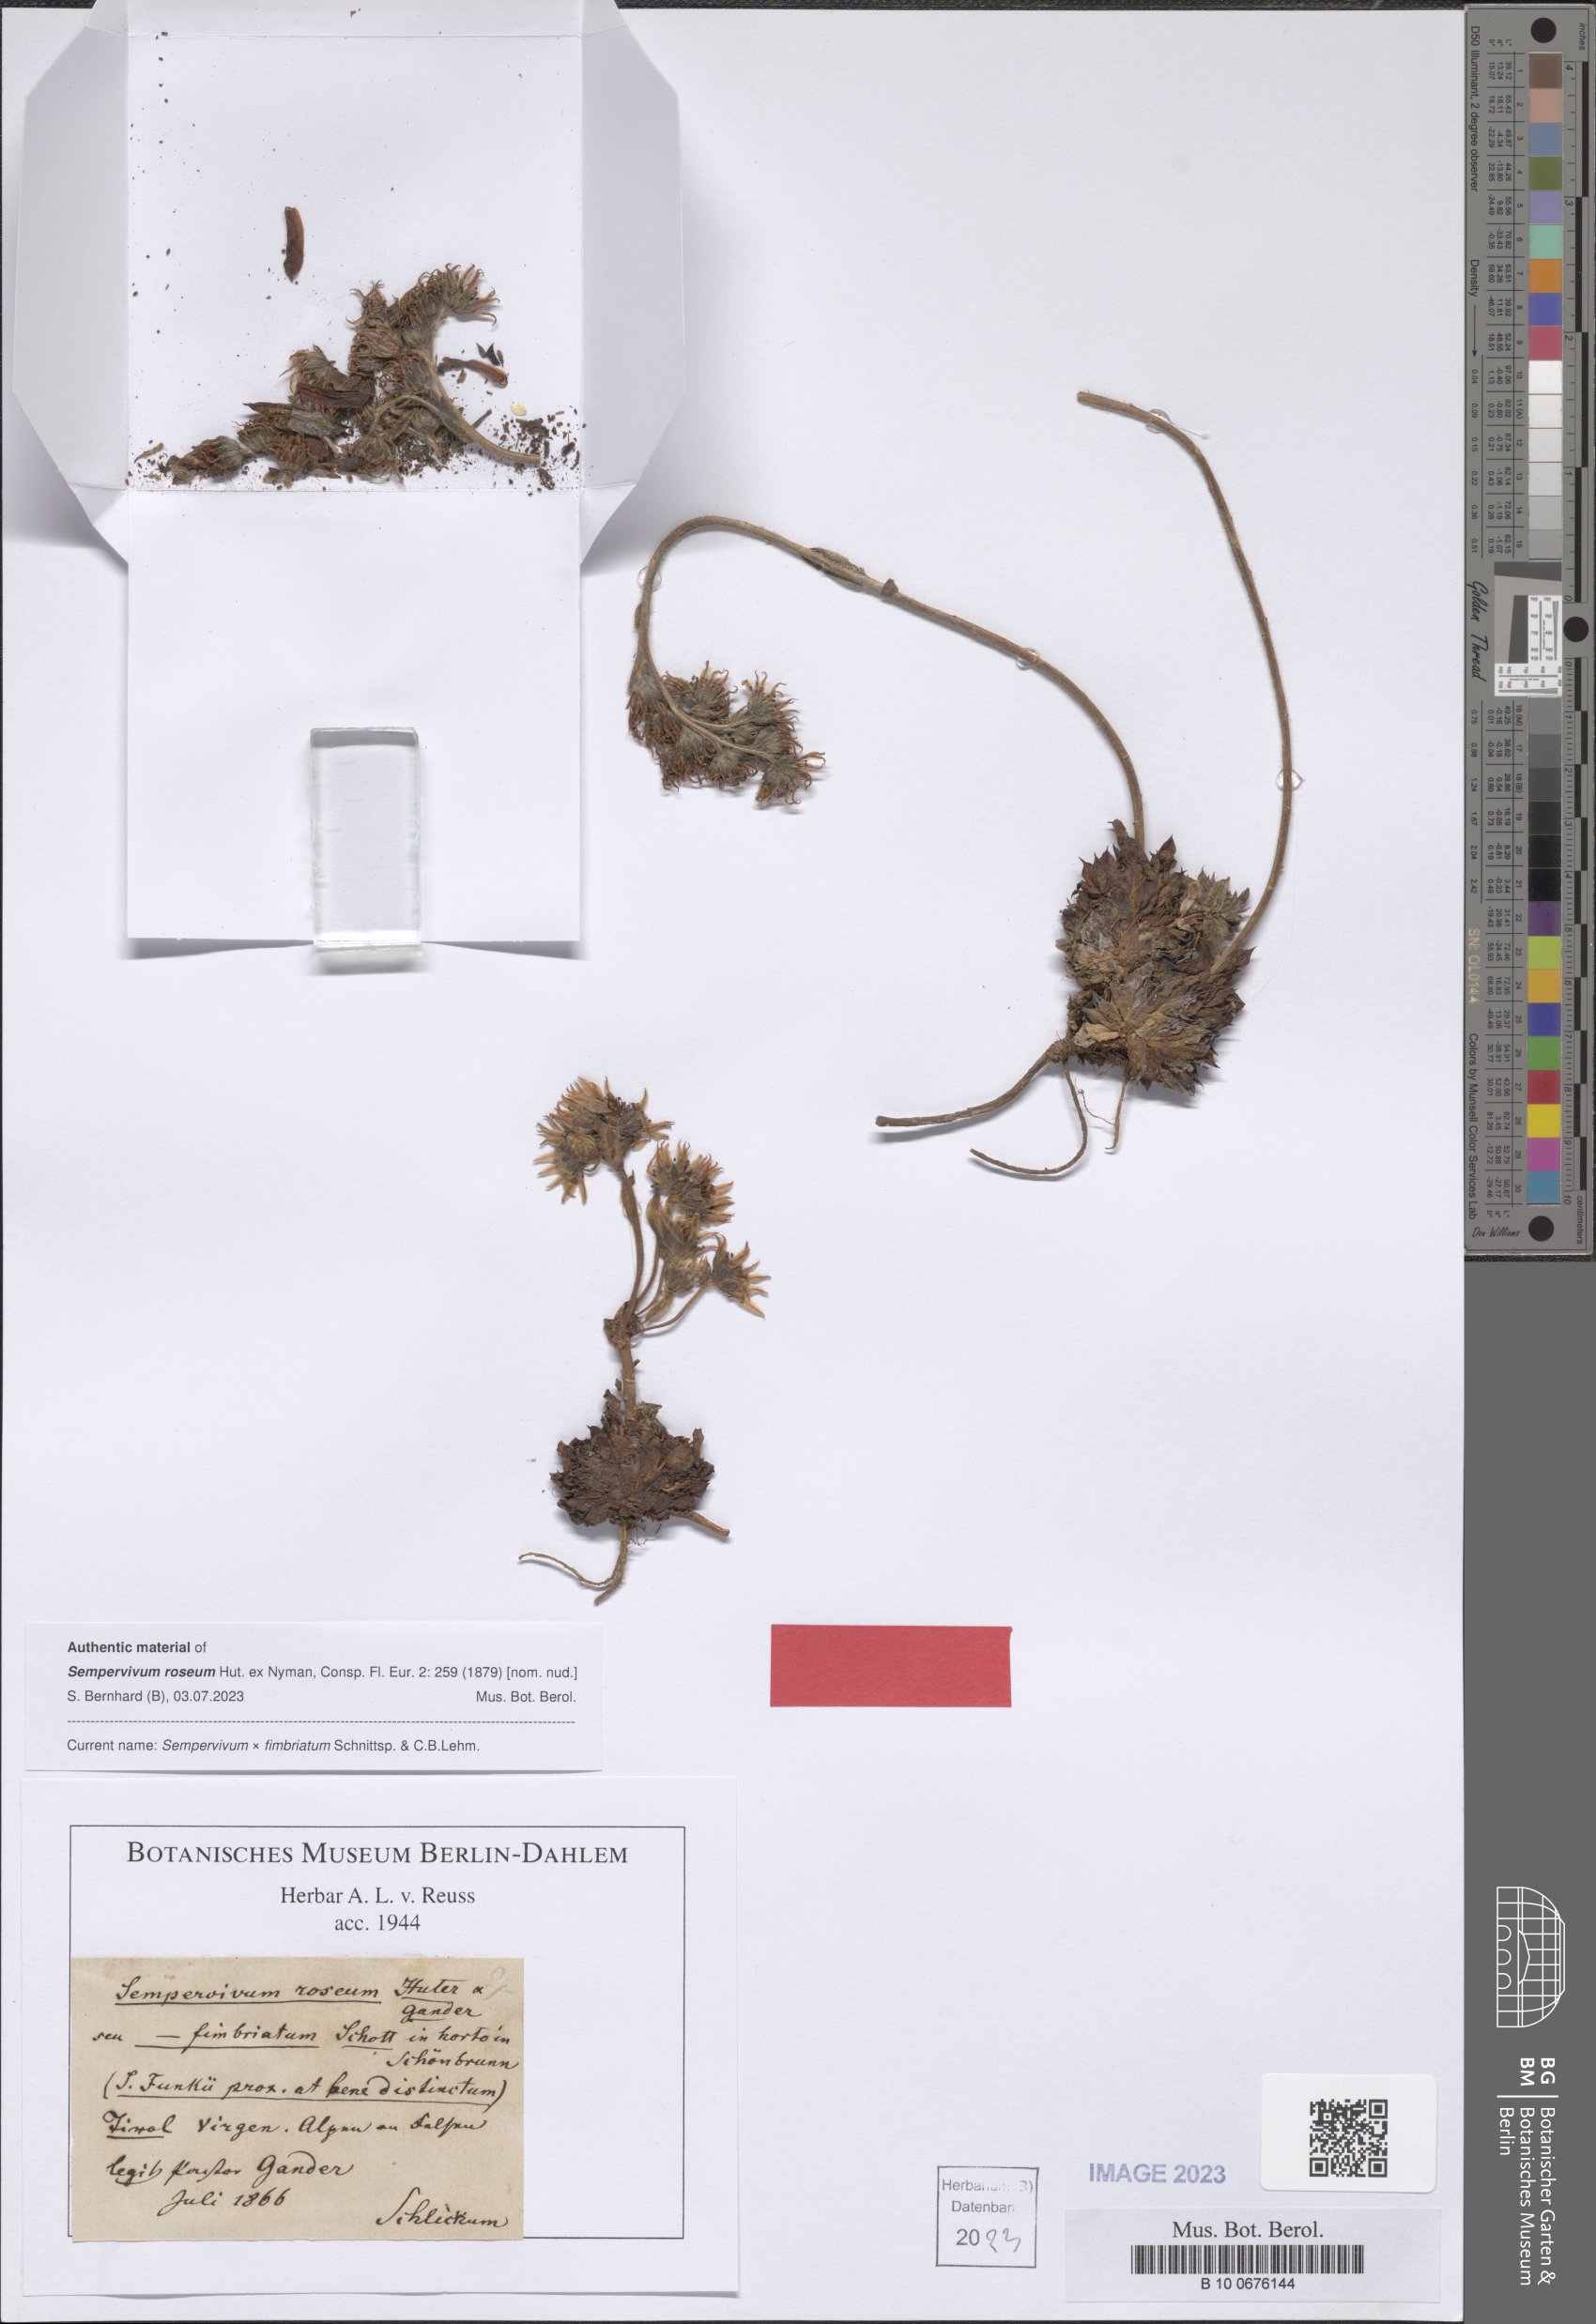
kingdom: Plantae
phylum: Tracheophyta
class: Magnoliopsida
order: Saxifragales
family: Crassulaceae
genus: Sempervivum
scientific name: Sempervivum fimbriatum
